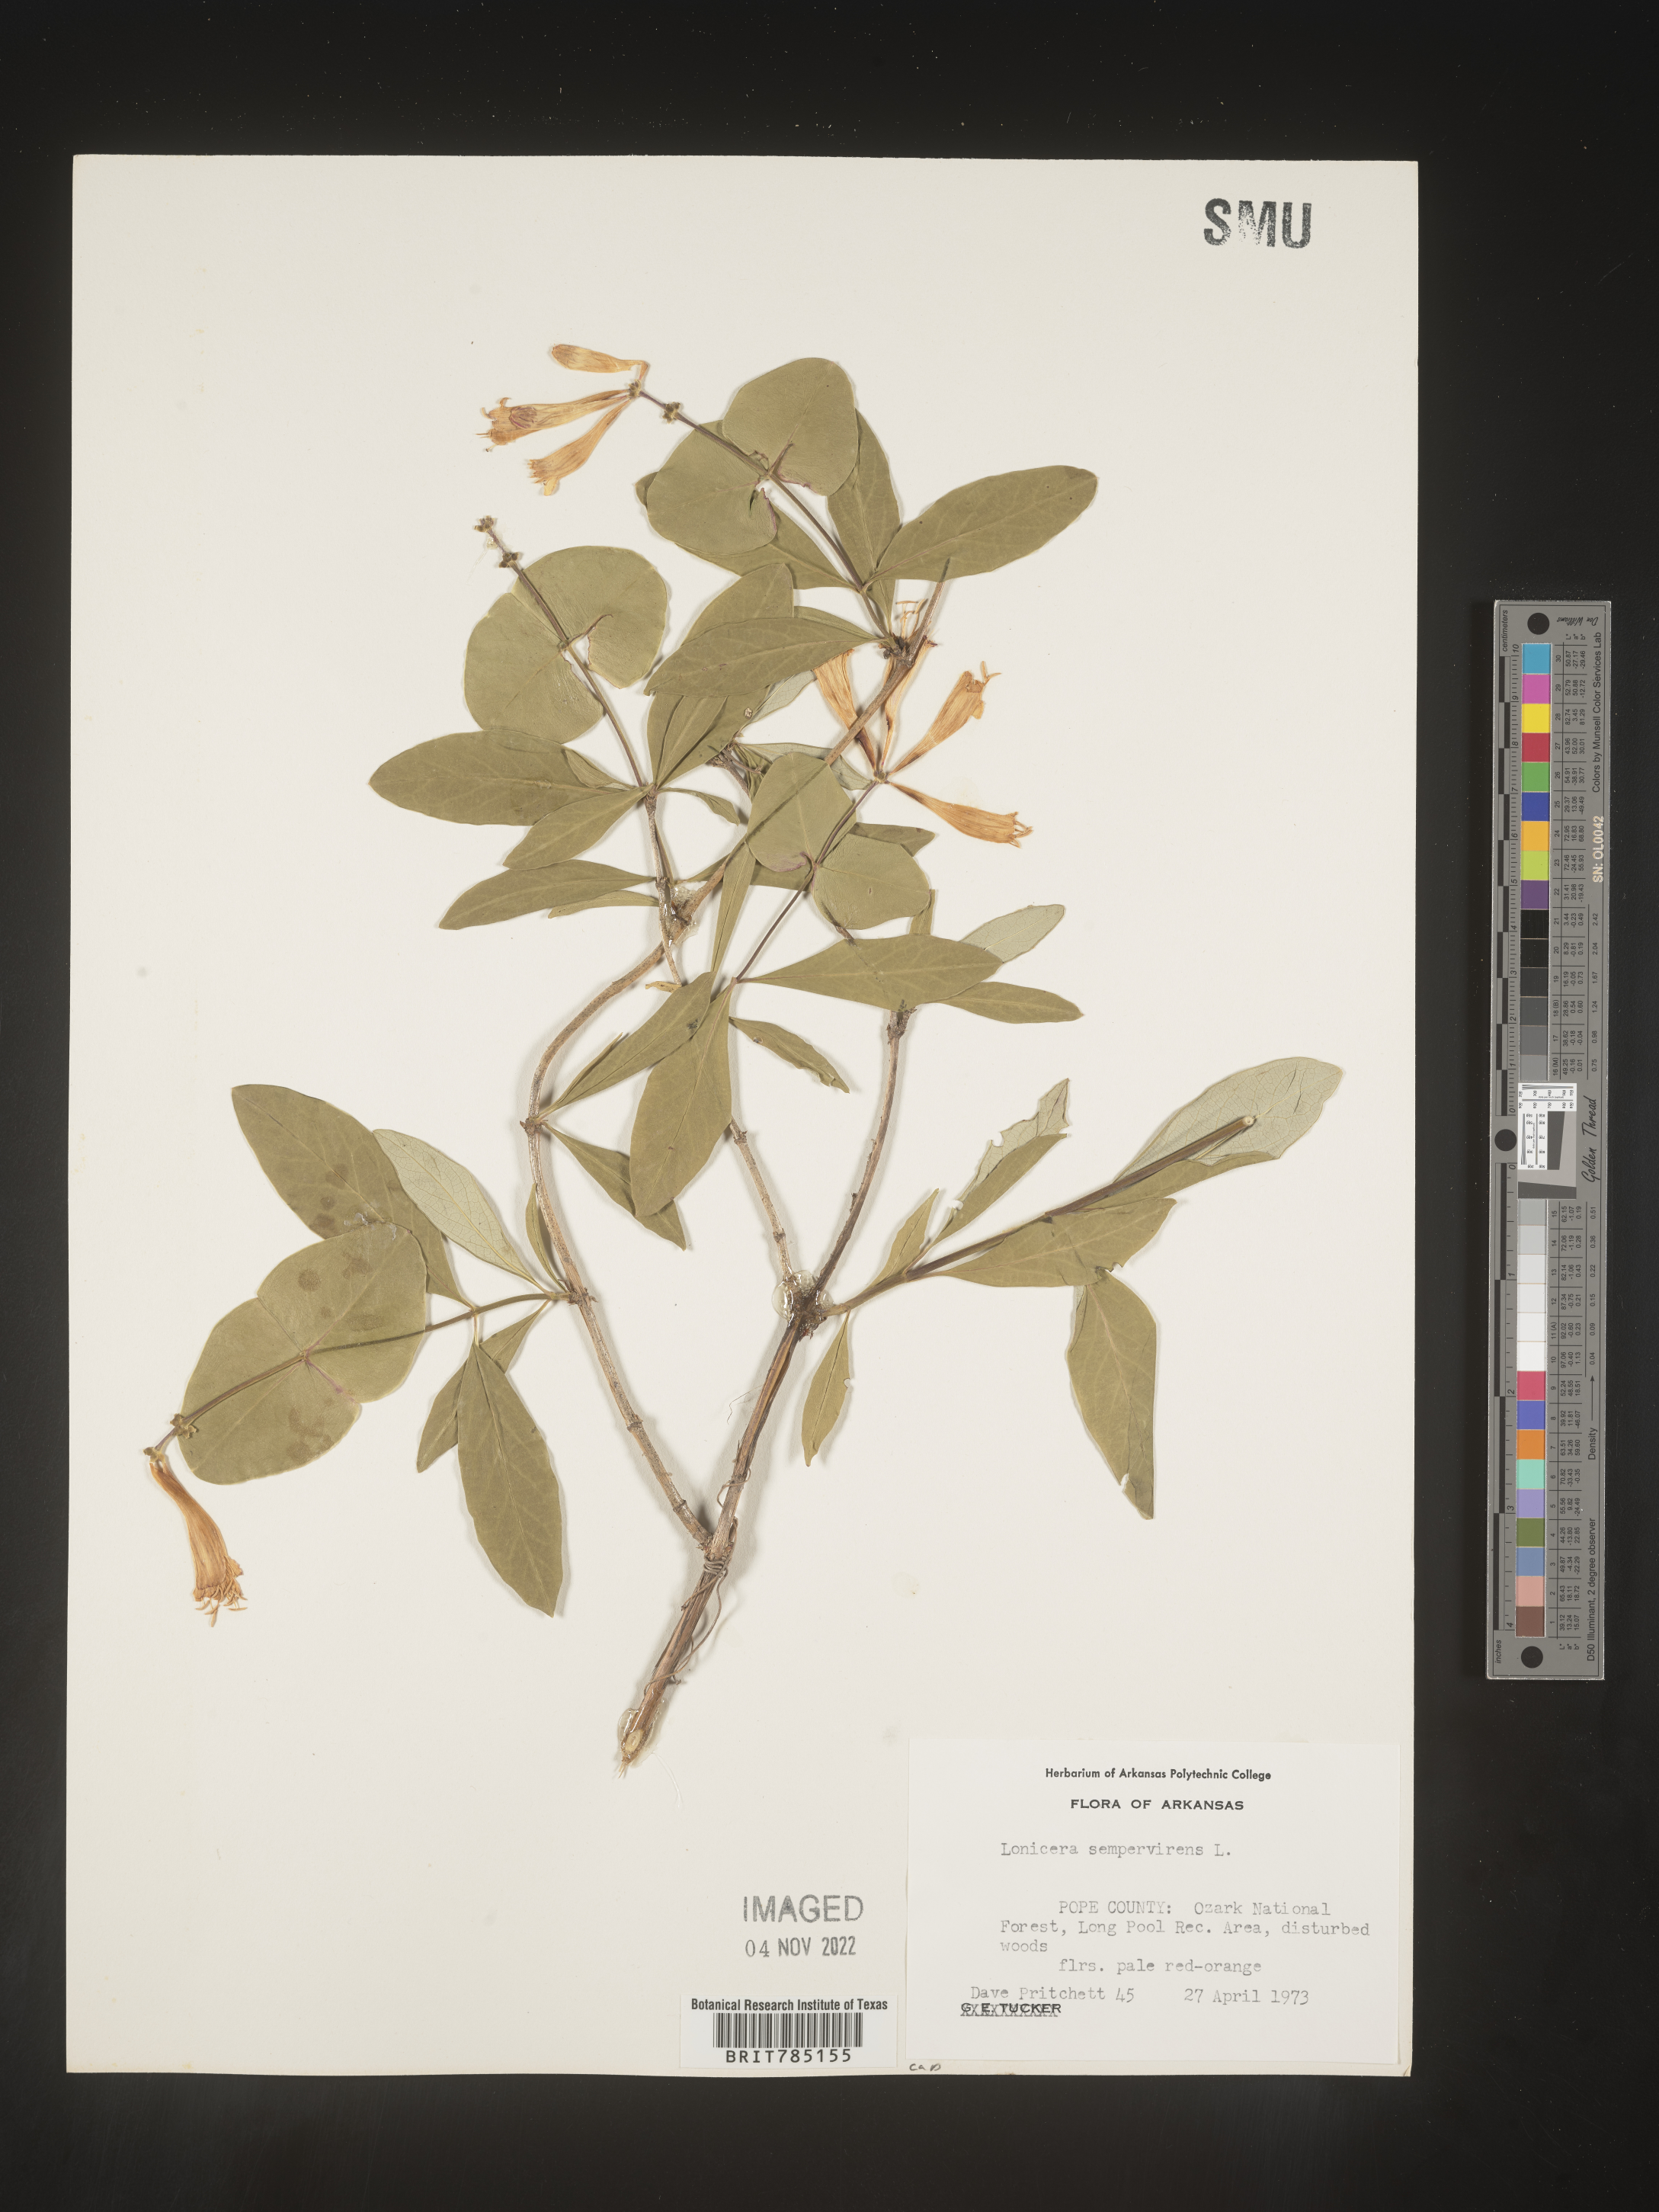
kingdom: Plantae
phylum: Tracheophyta
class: Magnoliopsida
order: Dipsacales
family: Caprifoliaceae
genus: Lonicera
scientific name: Lonicera sempervirens
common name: Coral honeysuckle
